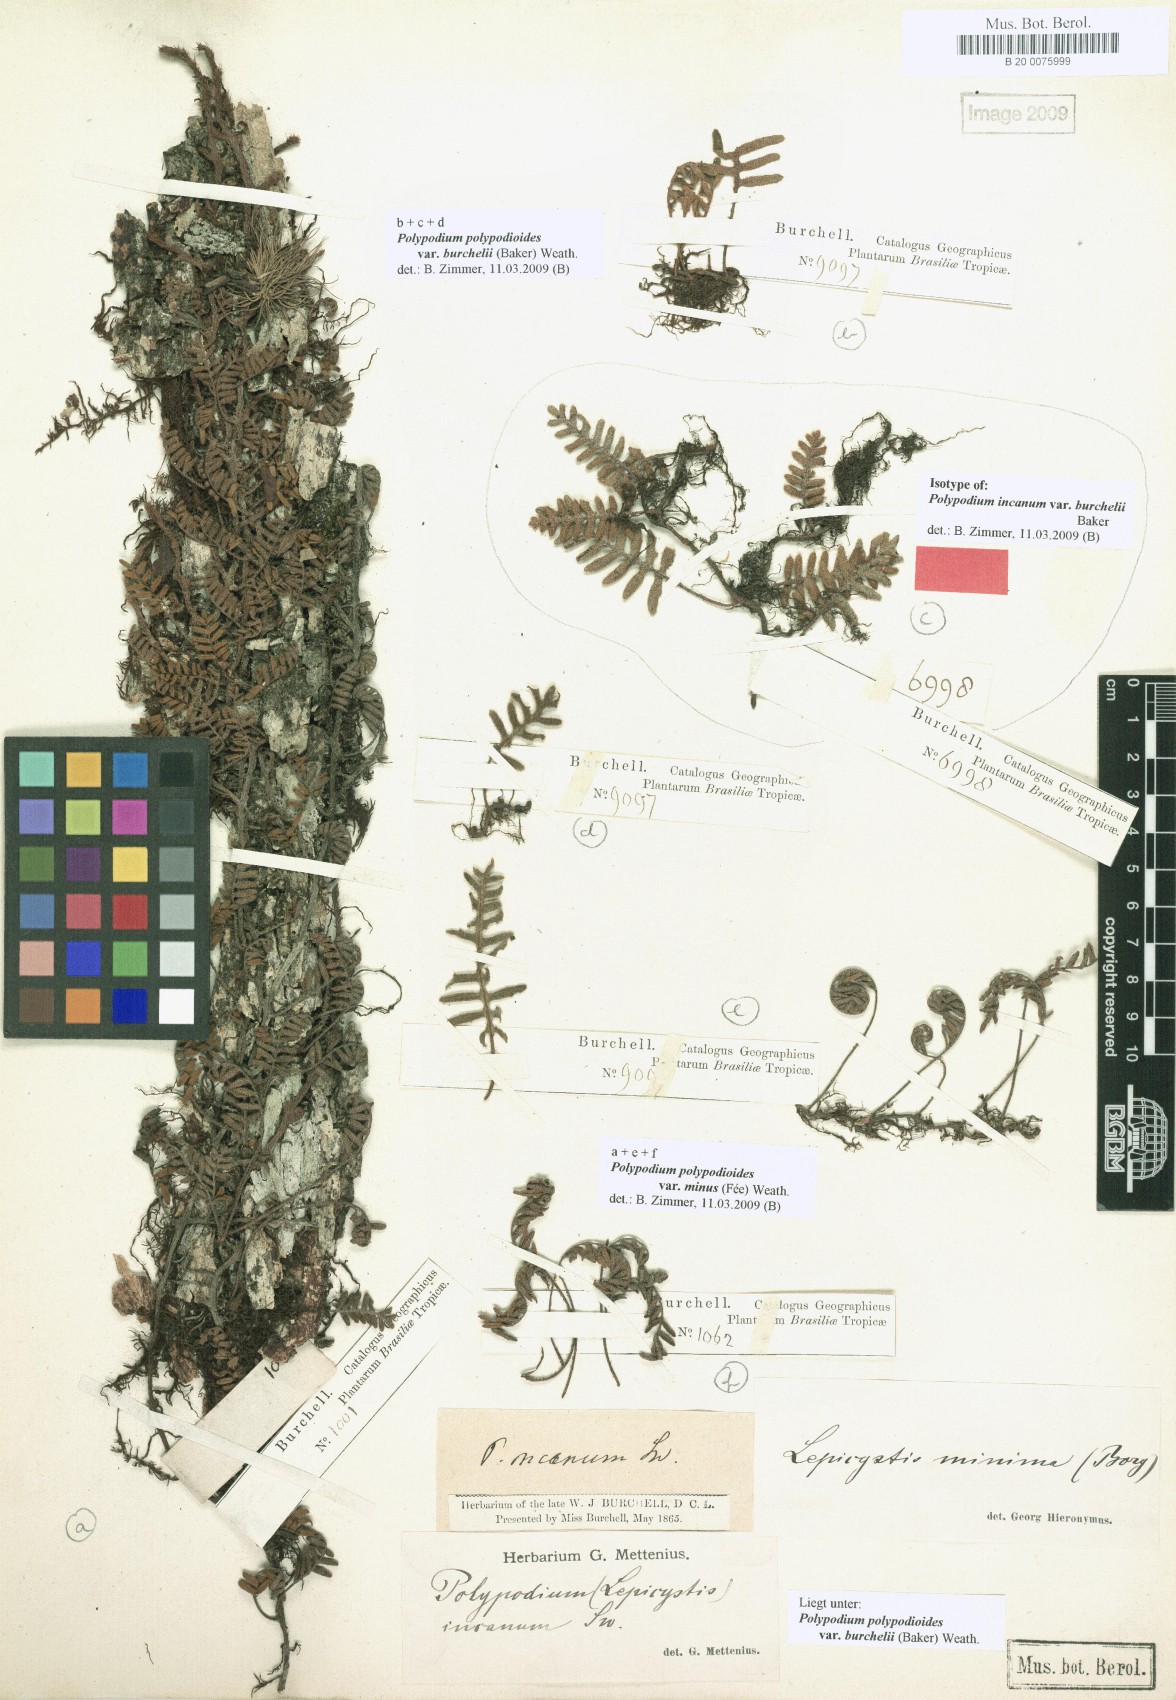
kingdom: Plantae
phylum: Tracheophyta
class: Polypodiopsida
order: Polypodiales
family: Polypodiaceae
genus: Pleopeltis
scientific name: Pleopeltis burchellii
